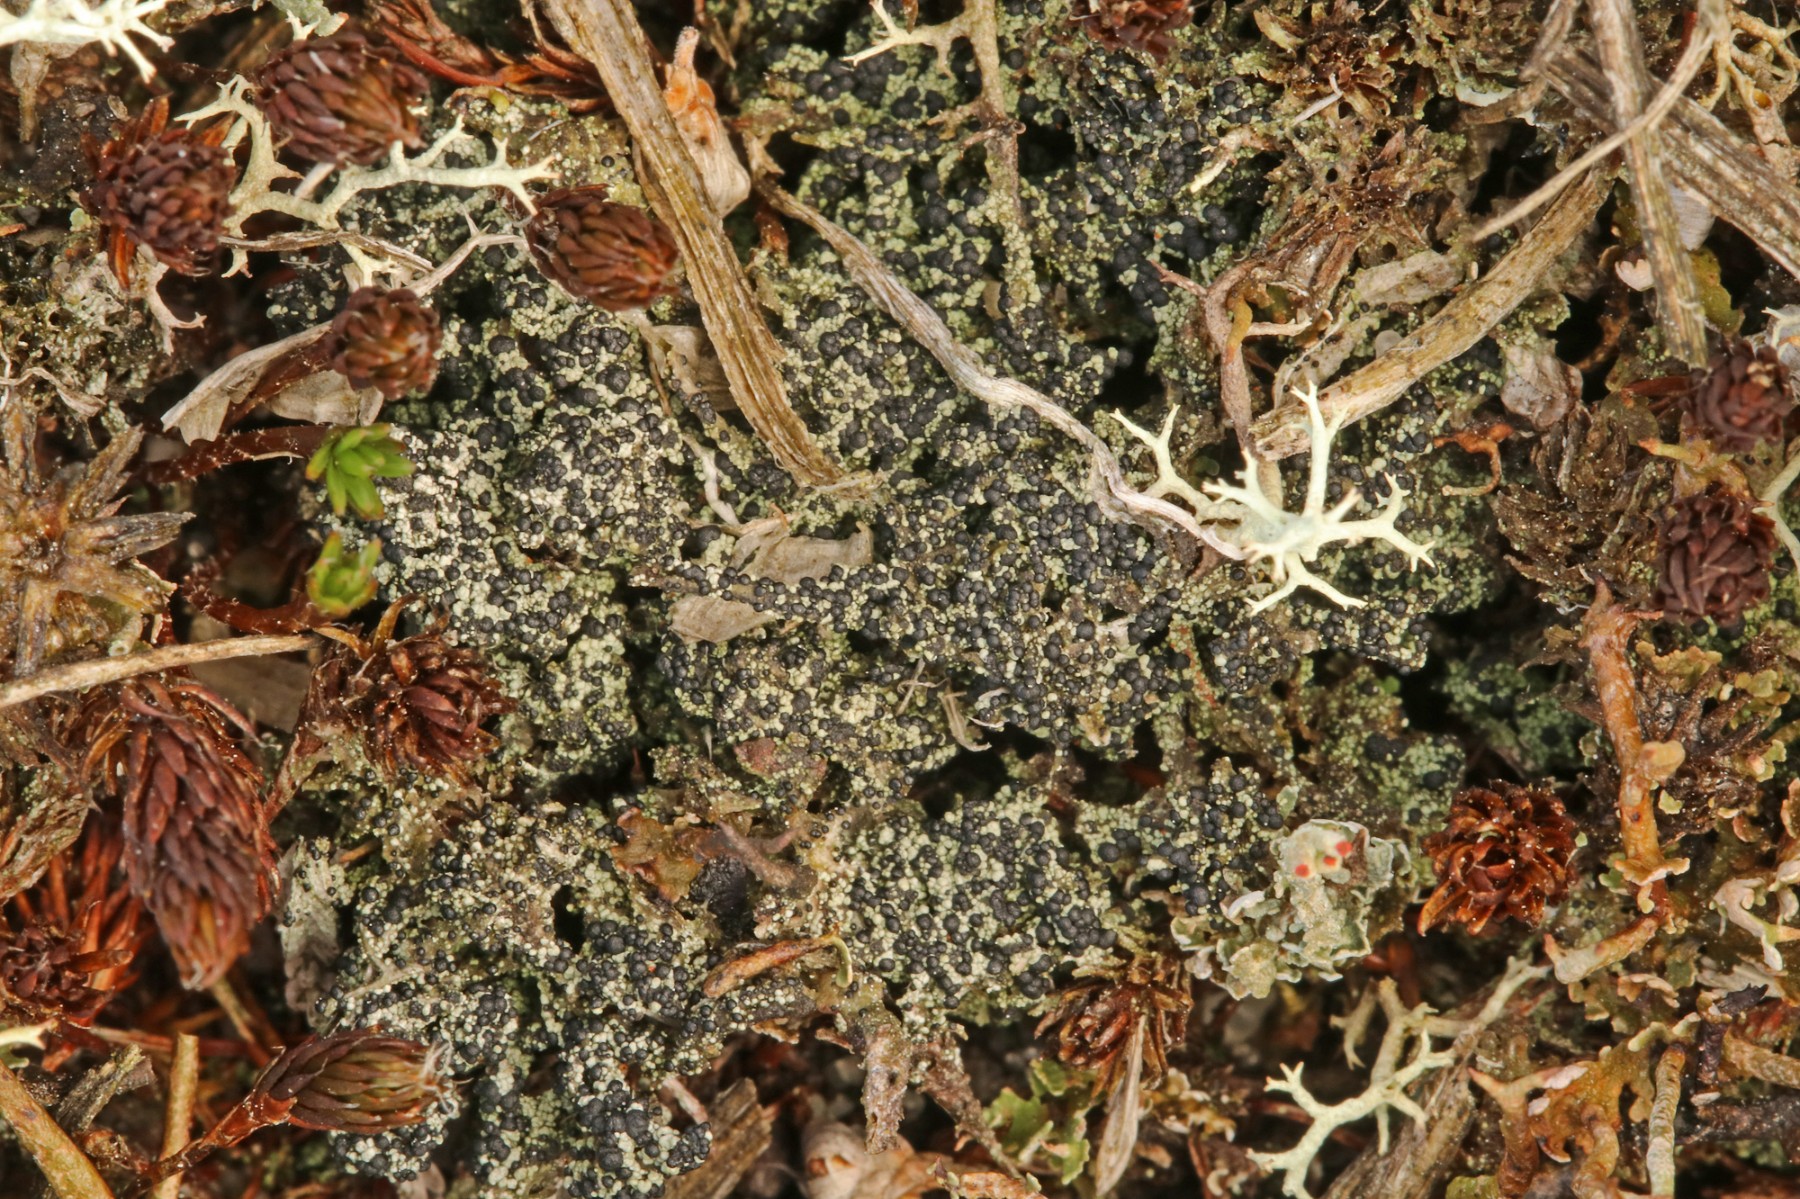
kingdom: Fungi
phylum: Ascomycota
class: Lecanoromycetes
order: Lecanorales
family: Byssolomataceae
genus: Micarea
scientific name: Micarea lignaria
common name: tørve-knaplav
